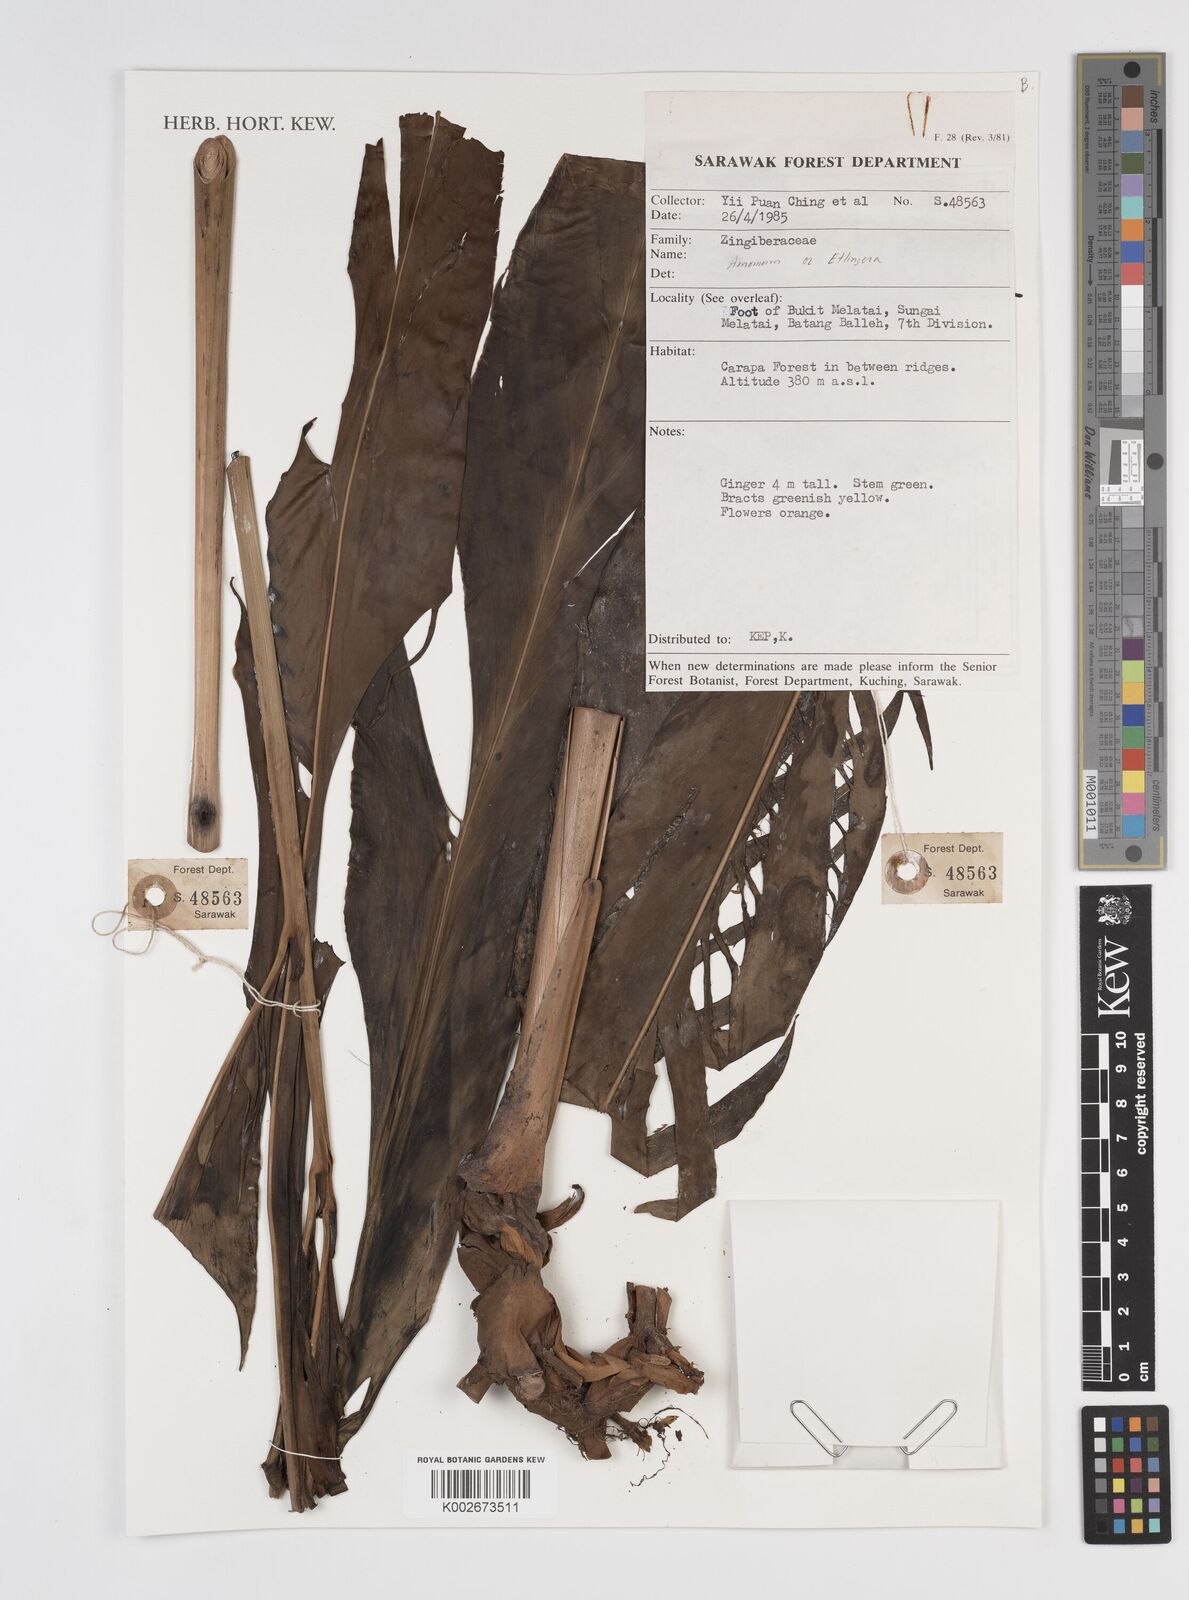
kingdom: Plantae
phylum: Tracheophyta
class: Liliopsida
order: Zingiberales
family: Zingiberaceae
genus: Amomum
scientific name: Amomum
